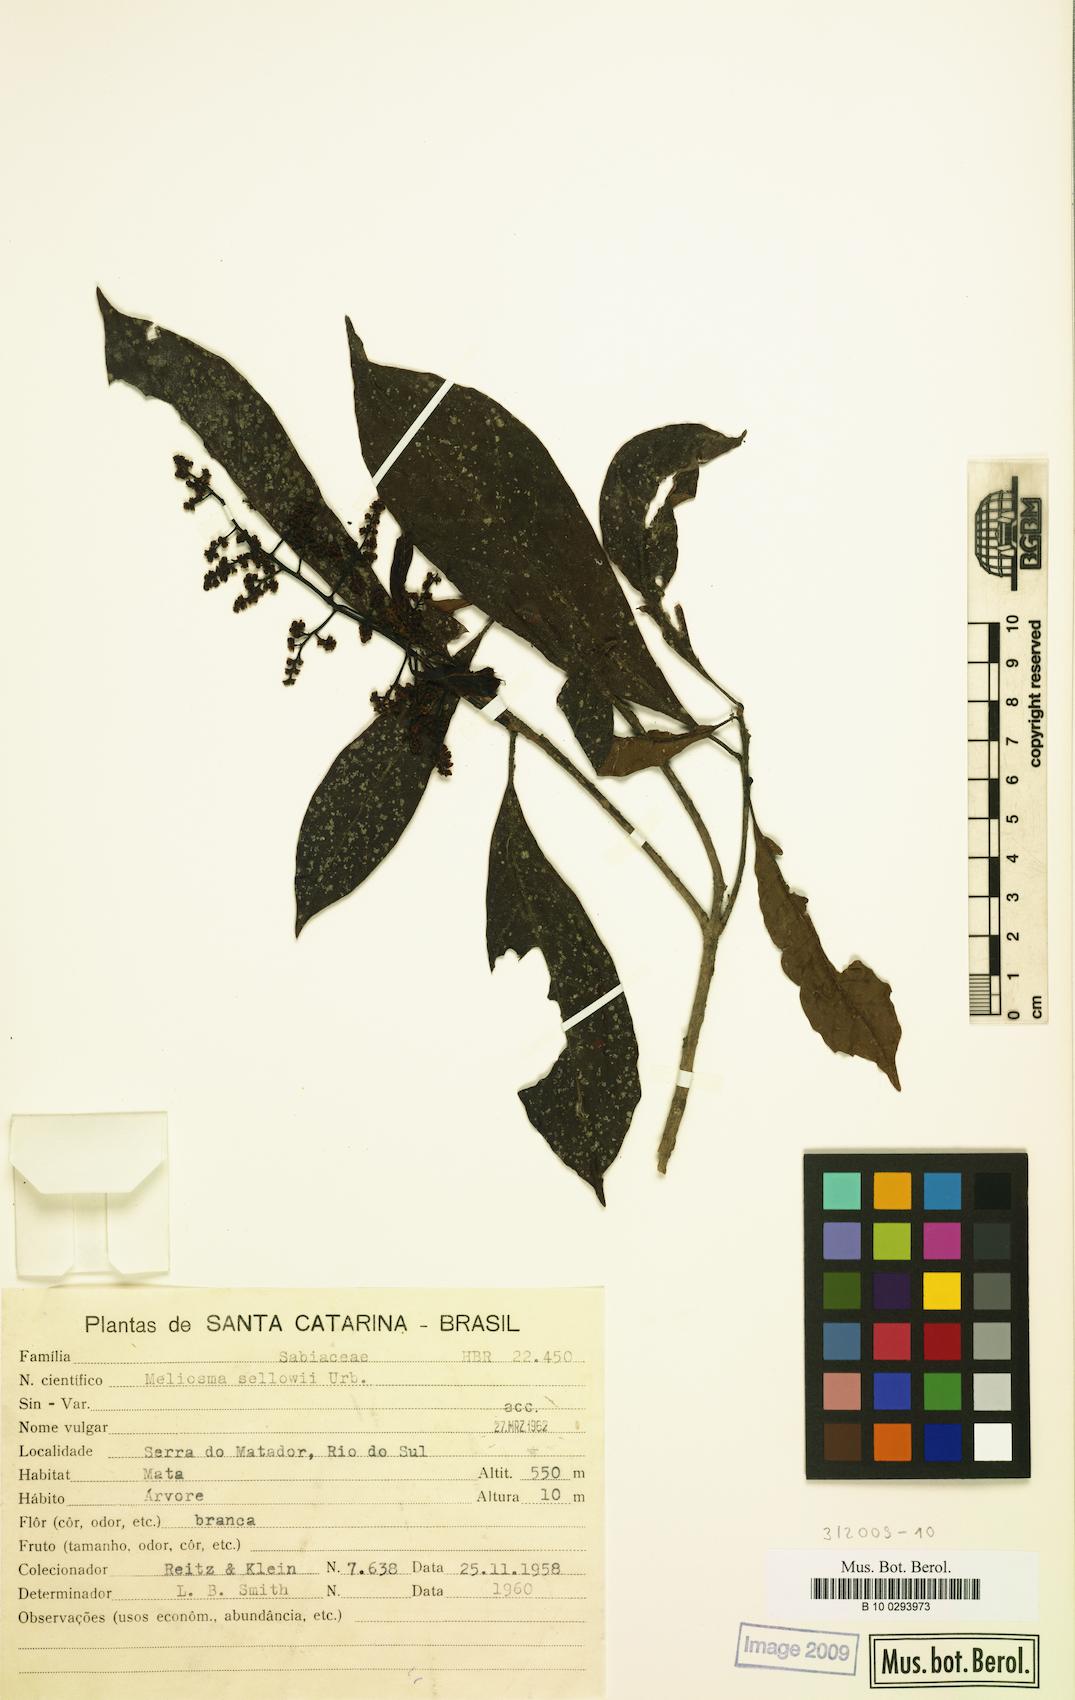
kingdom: Plantae
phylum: Tracheophyta
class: Magnoliopsida
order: Proteales
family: Sabiaceae
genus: Meliosma
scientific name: Meliosma sellowii
